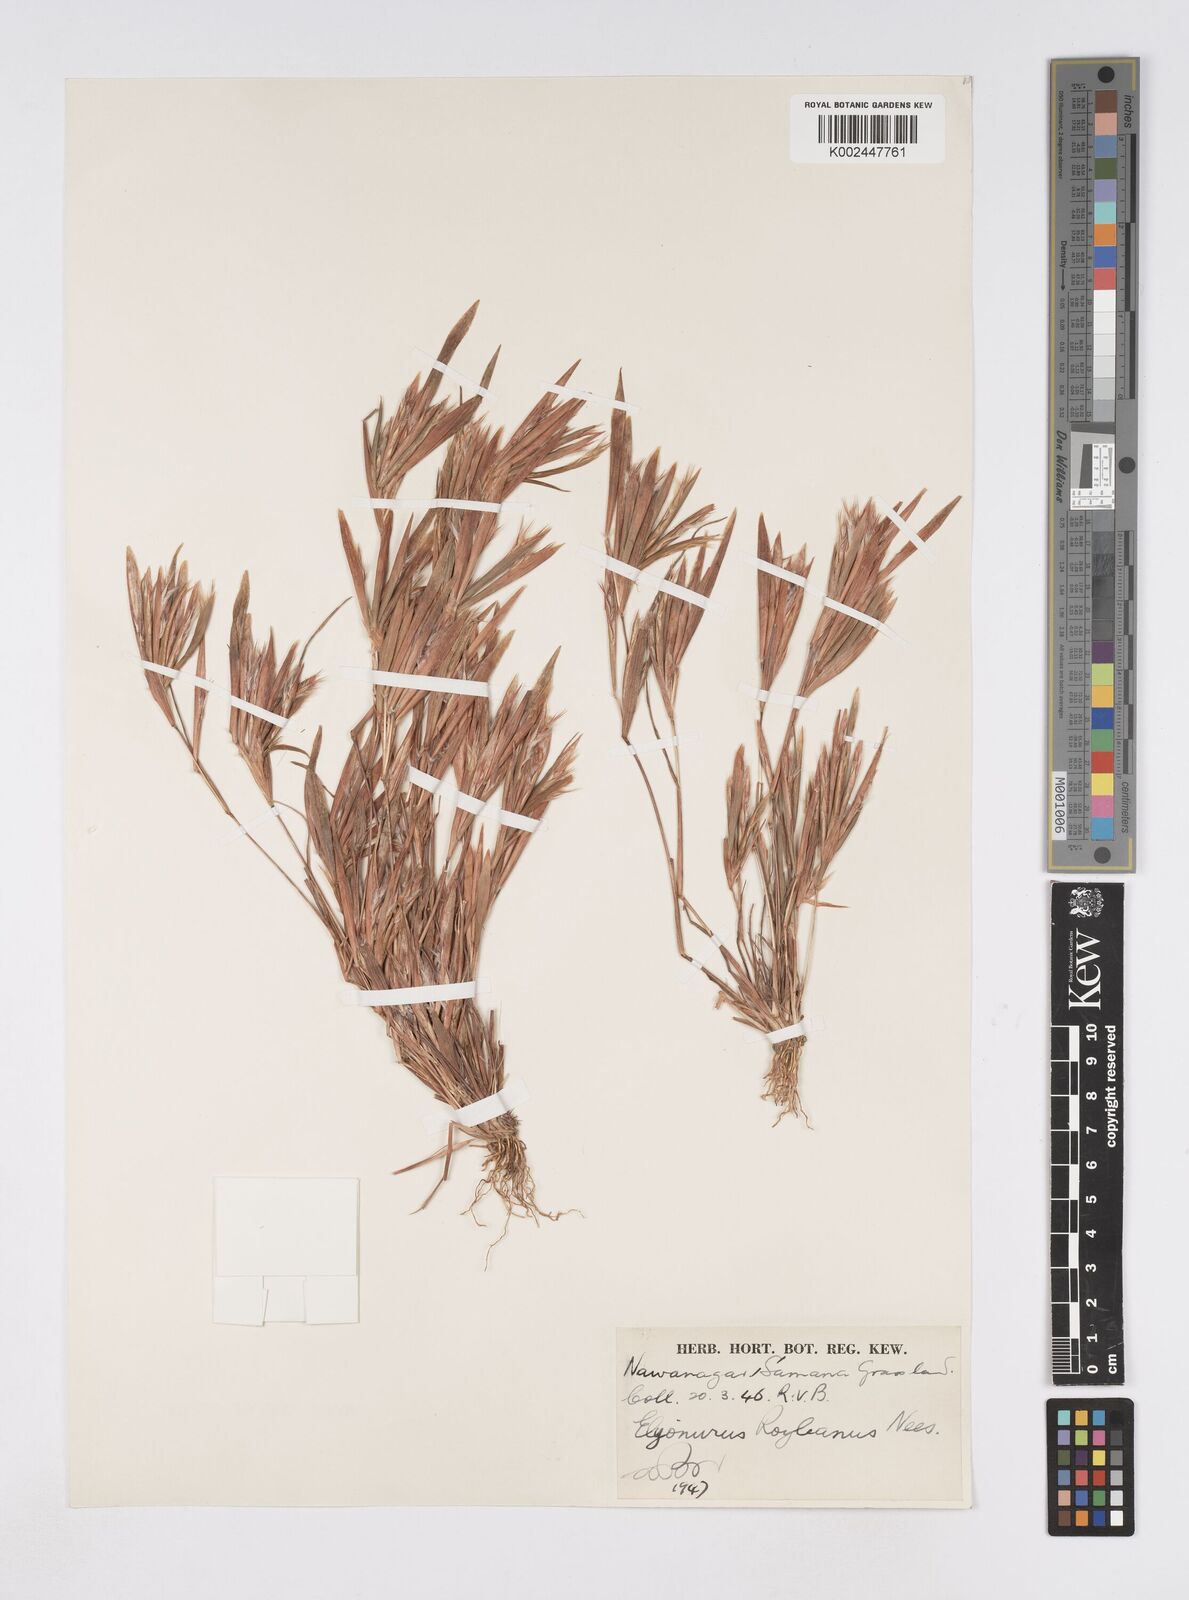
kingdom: Plantae
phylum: Tracheophyta
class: Liliopsida
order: Poales
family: Poaceae
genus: Elionurus
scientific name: Elionurus royleanus
